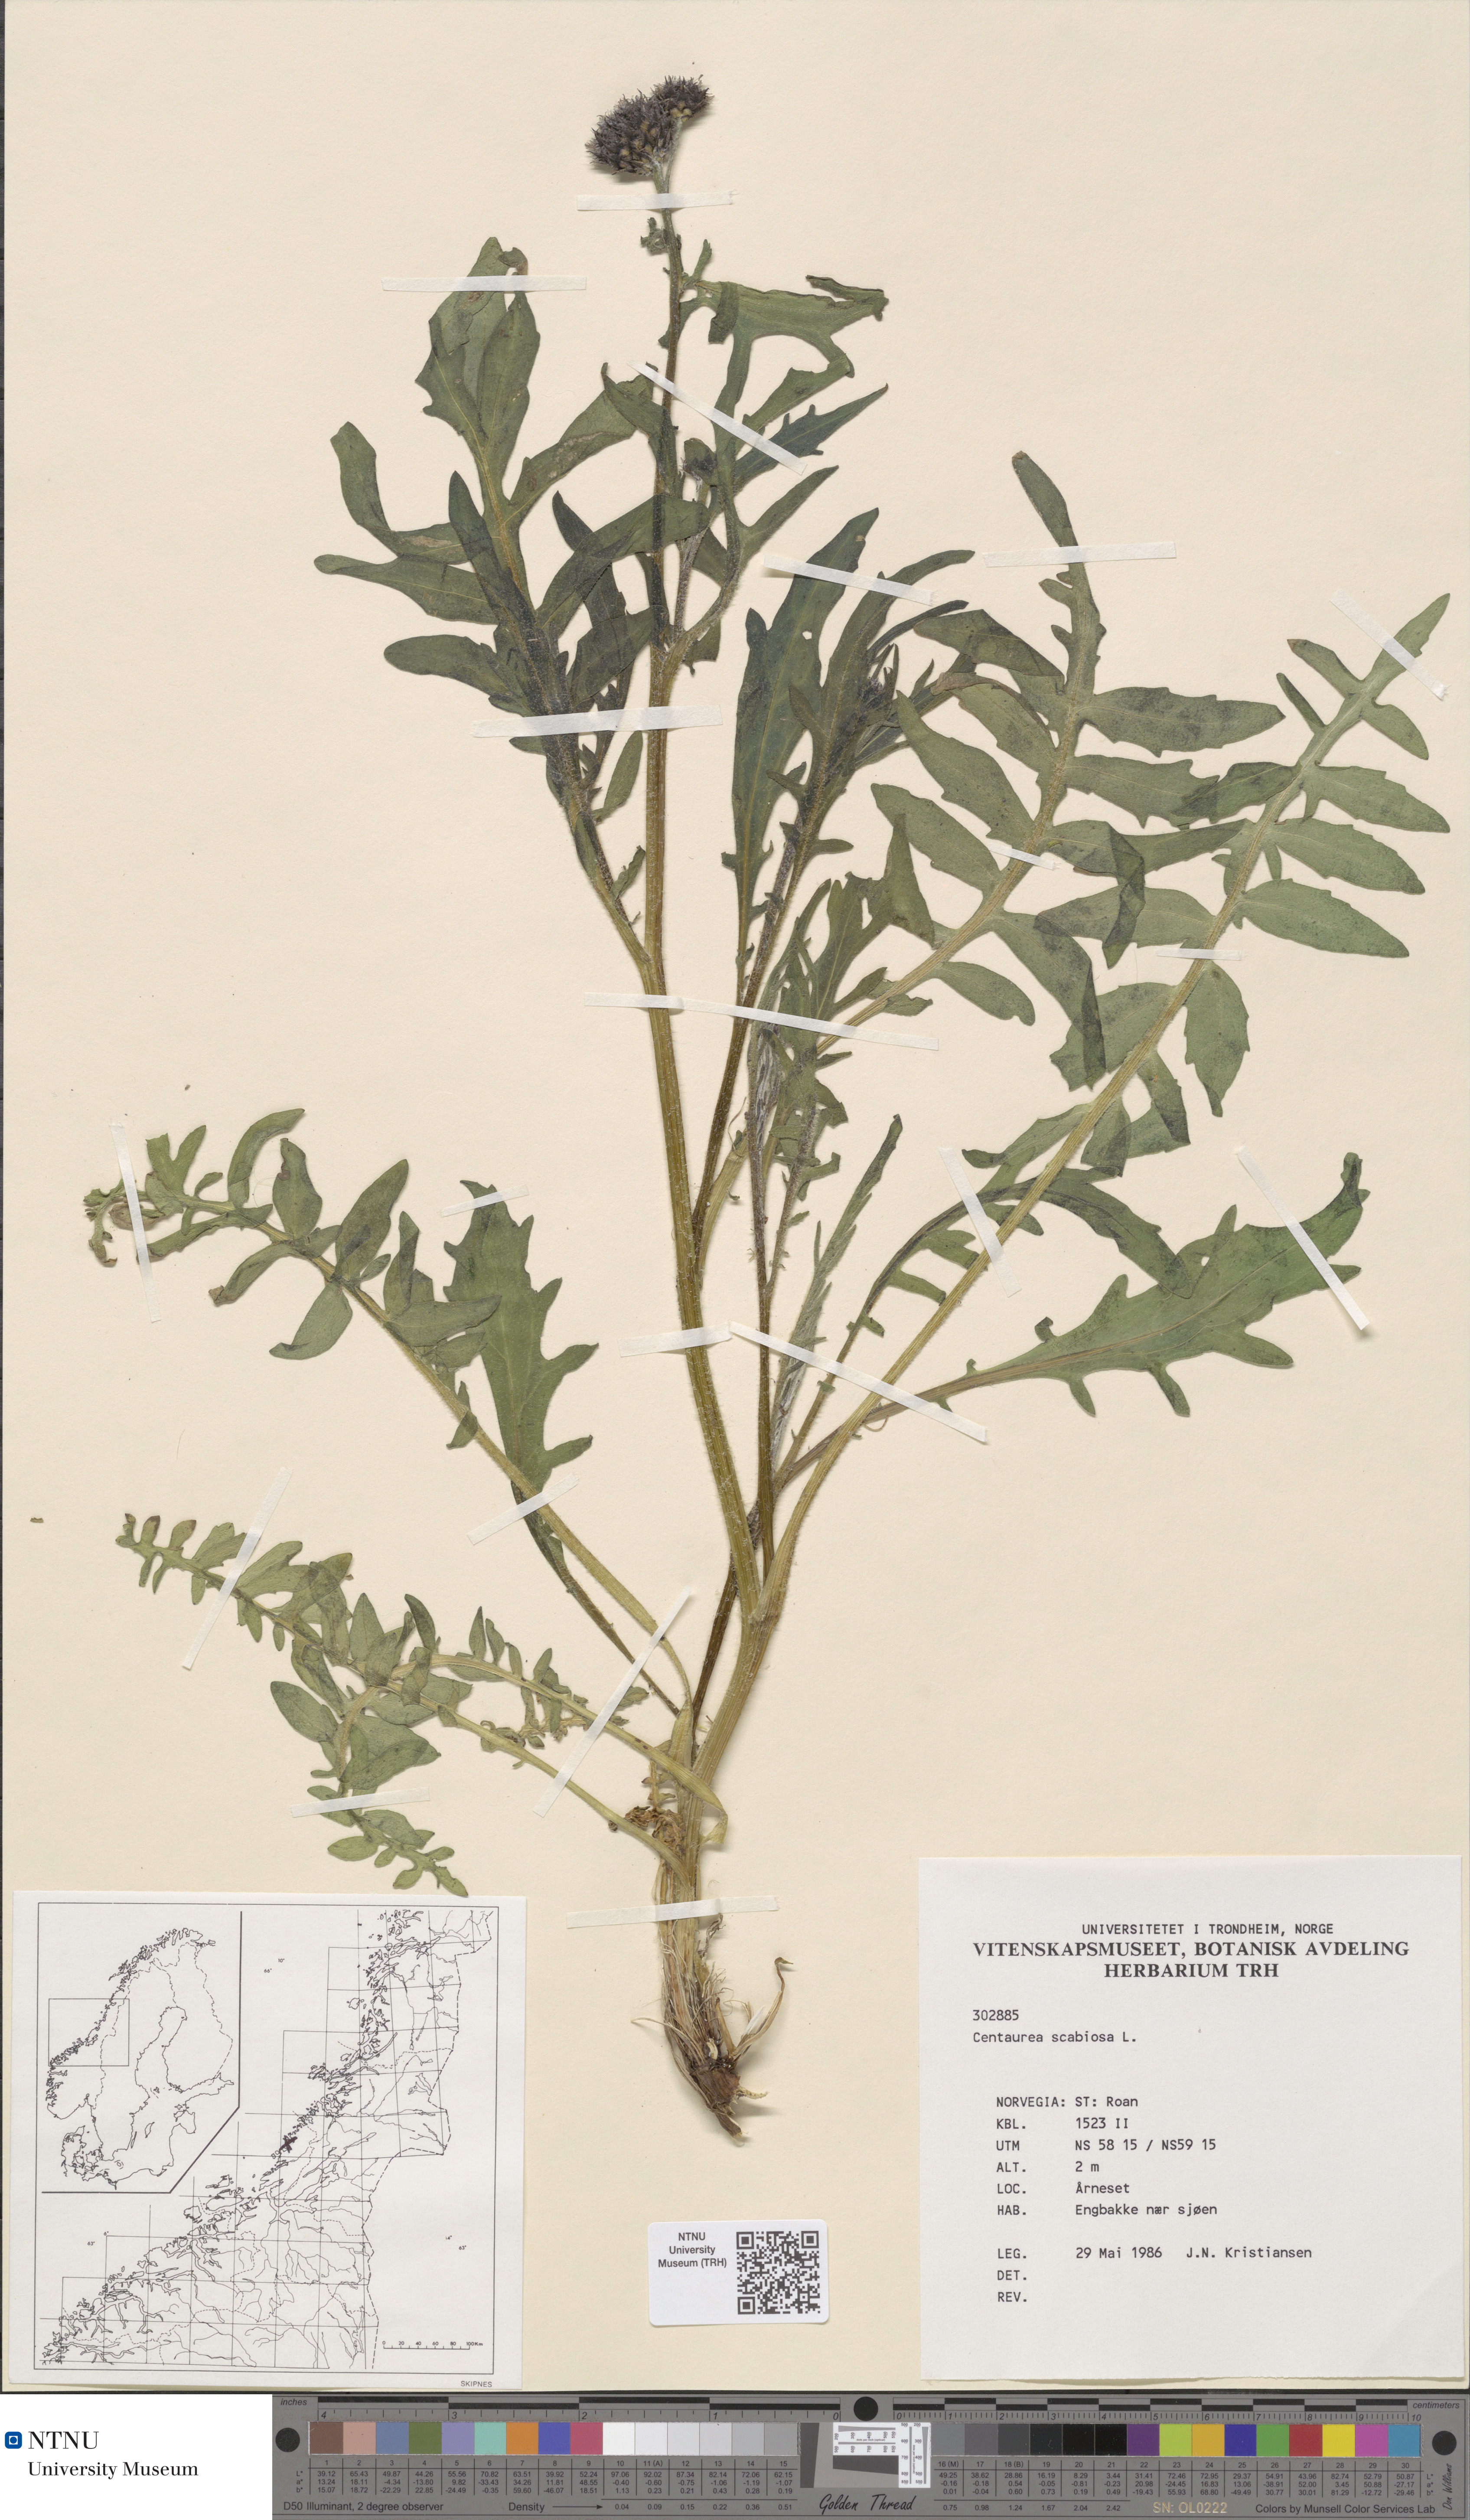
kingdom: Plantae
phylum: Tracheophyta
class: Magnoliopsida
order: Asterales
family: Asteraceae
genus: Centaurea
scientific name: Centaurea scabiosa
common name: Greater knapweed
